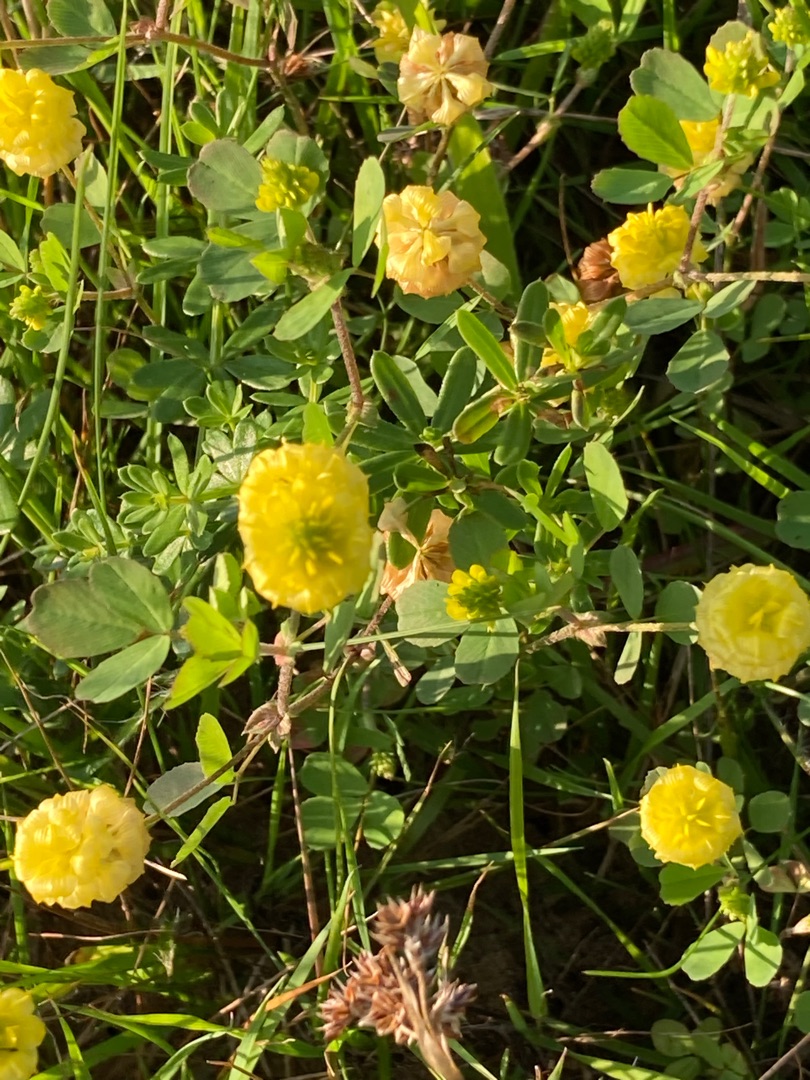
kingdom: Plantae
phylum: Tracheophyta
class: Magnoliopsida
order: Fabales
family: Fabaceae
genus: Trifolium
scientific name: Trifolium campestre
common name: Gul kløver
